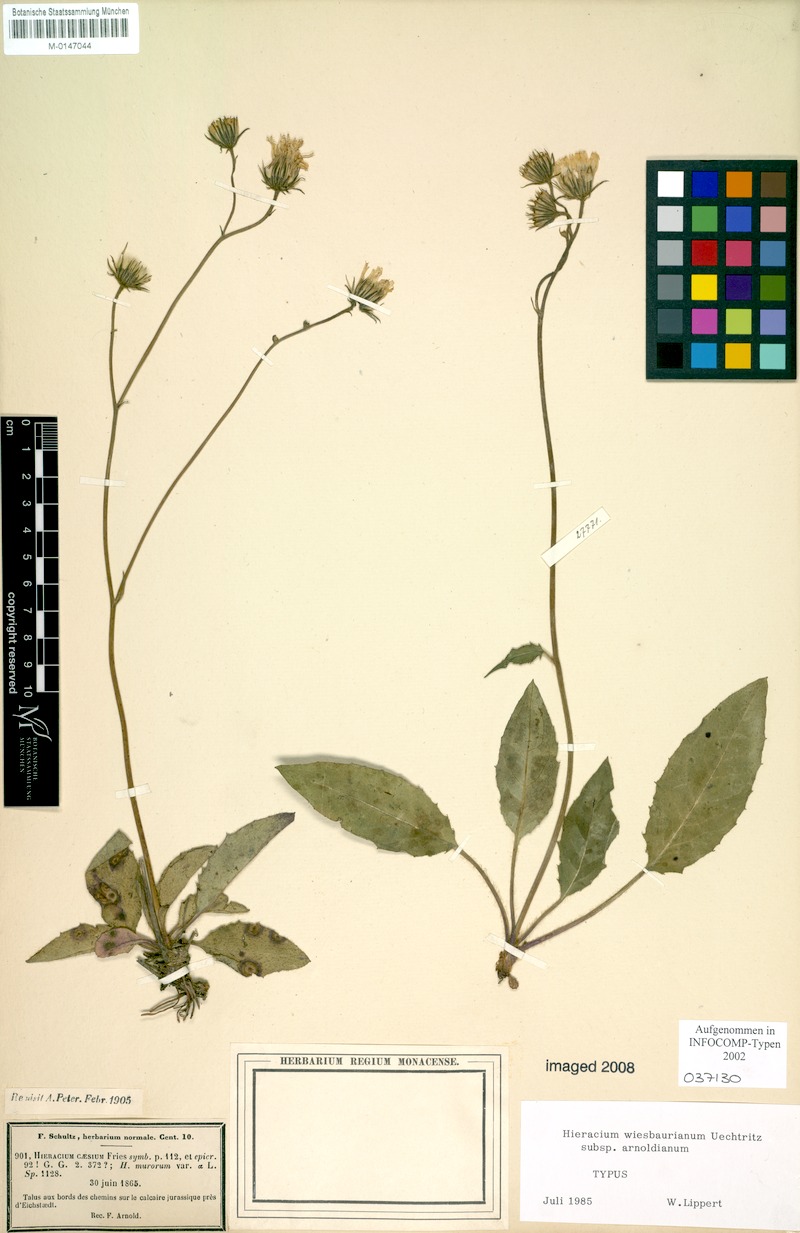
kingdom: Plantae
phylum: Tracheophyta
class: Magnoliopsida
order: Asterales
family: Asteraceae
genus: Hieracium
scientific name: Hieracium hypochoeroides
